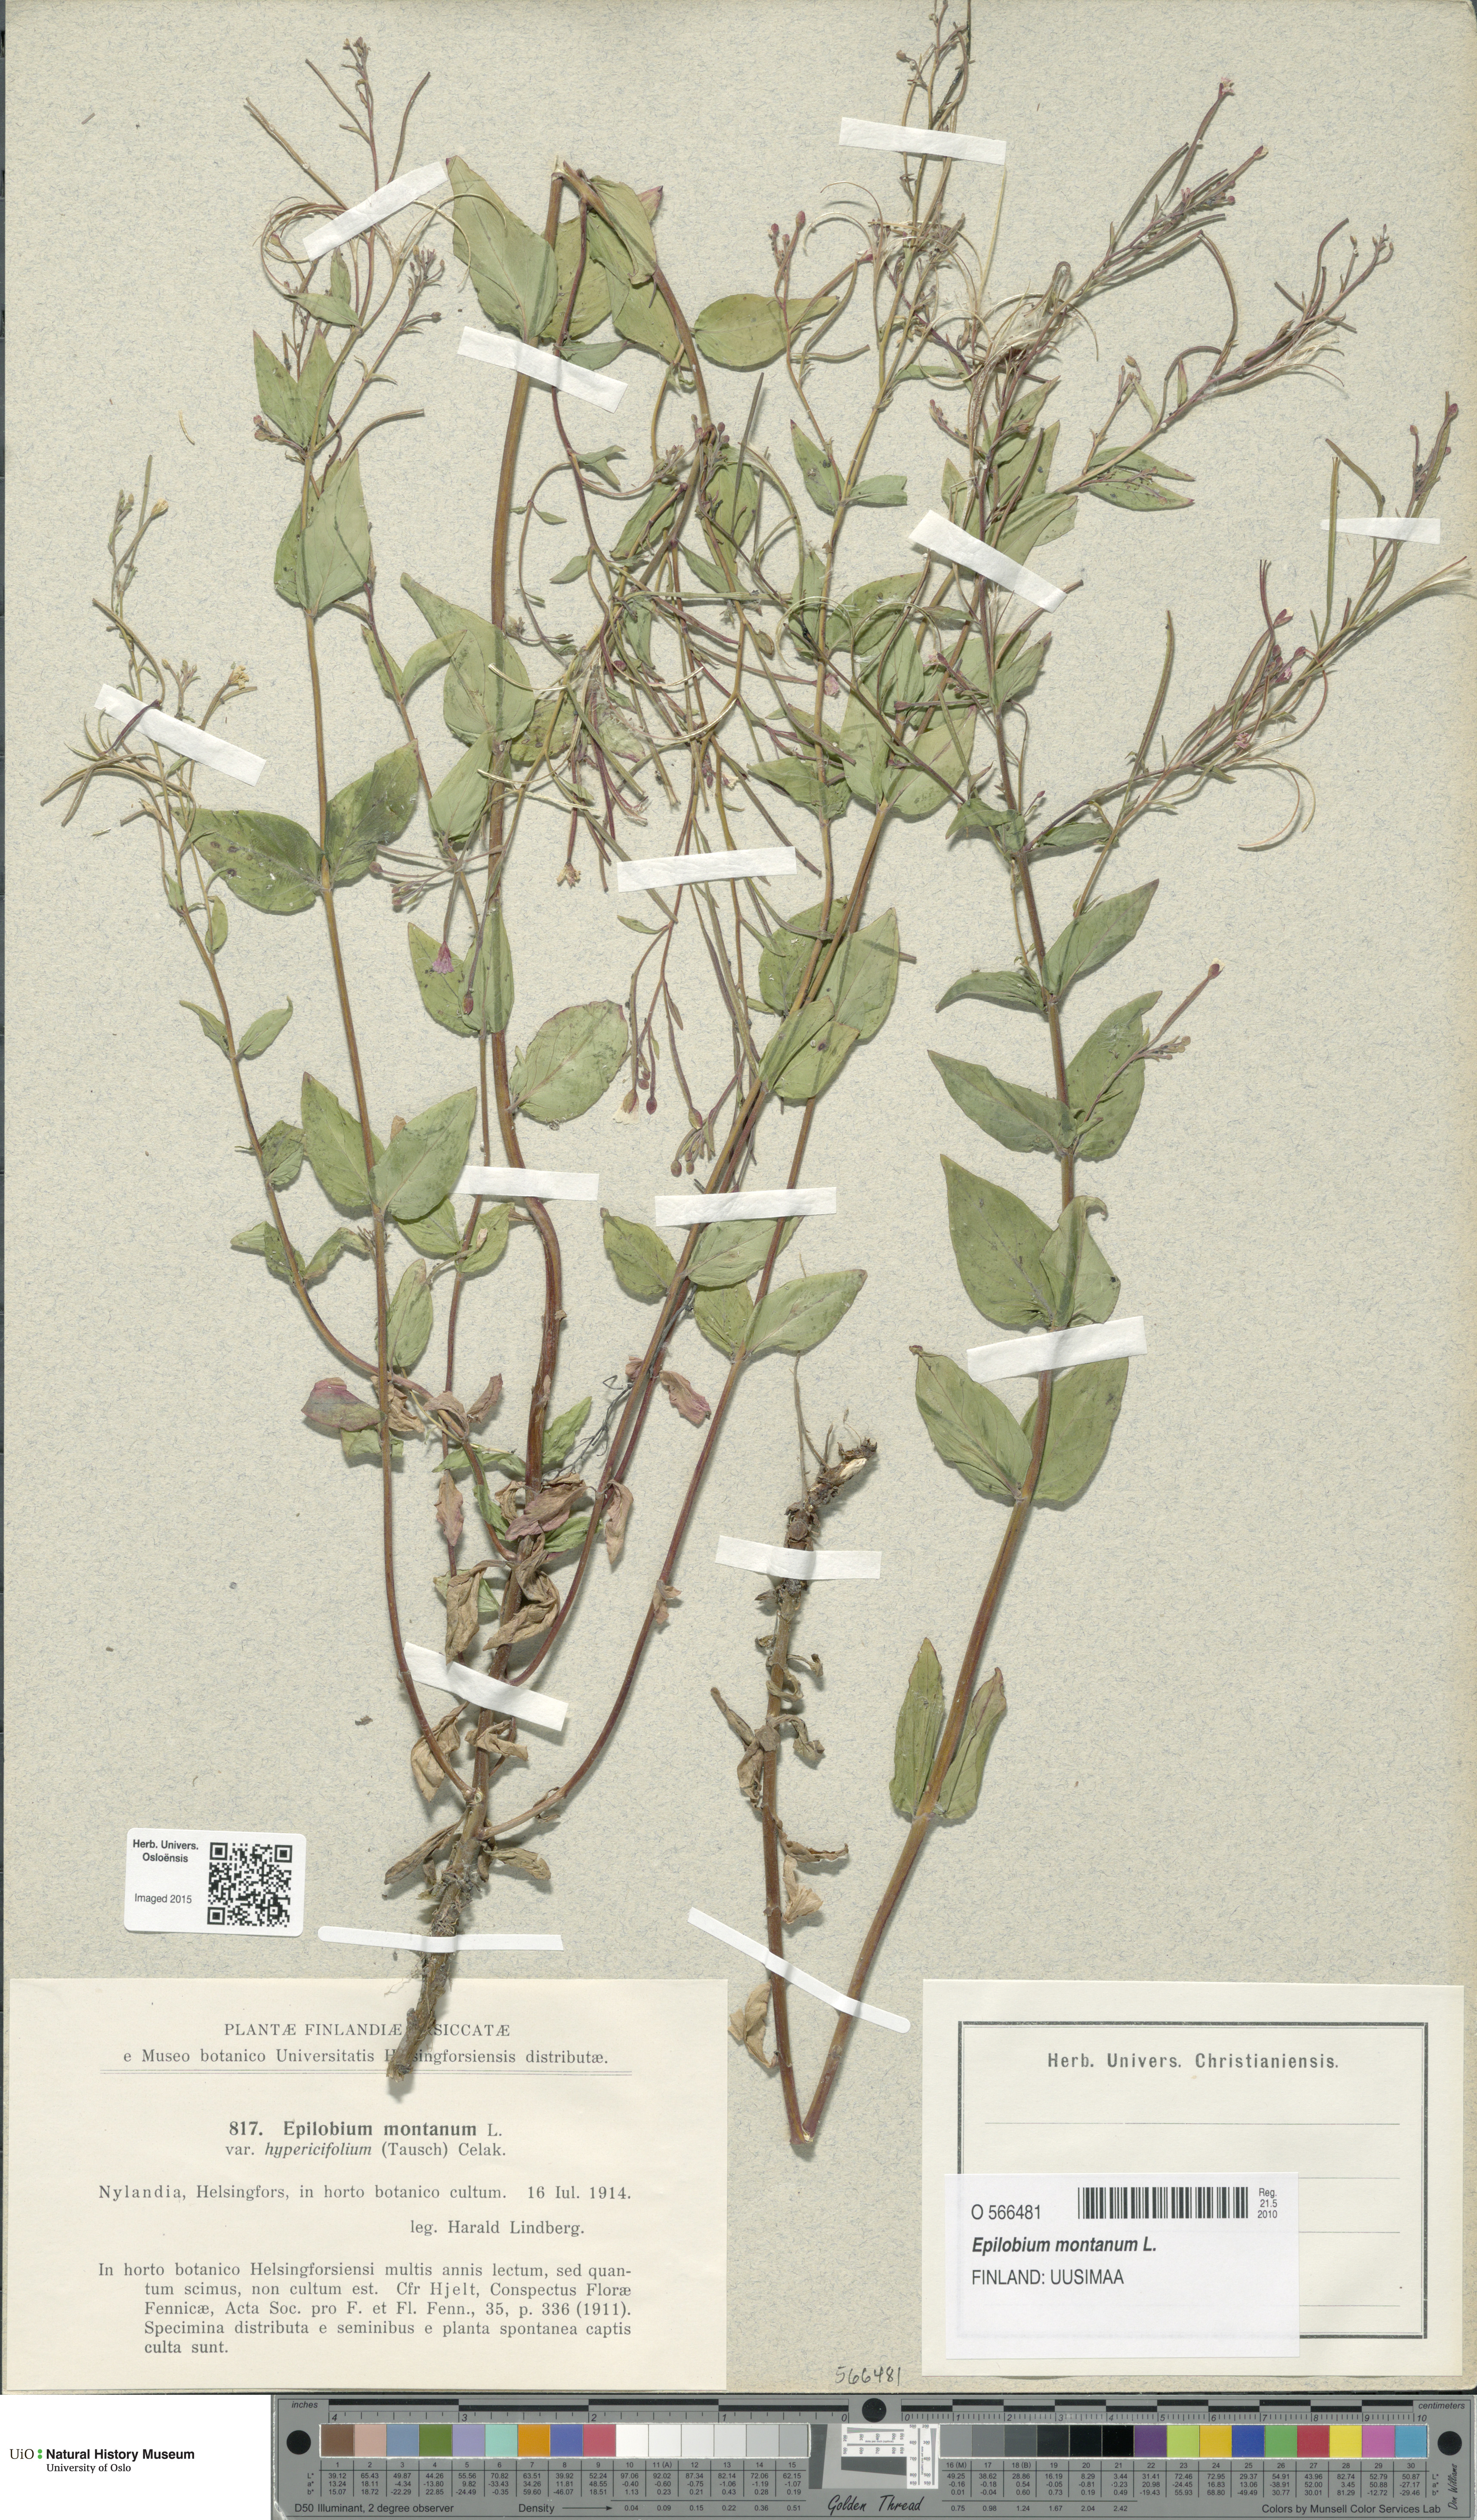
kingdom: Plantae
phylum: Tracheophyta
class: Magnoliopsida
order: Myrtales
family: Onagraceae
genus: Epilobium
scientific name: Epilobium montanum
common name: Broad-leaved willowherb
